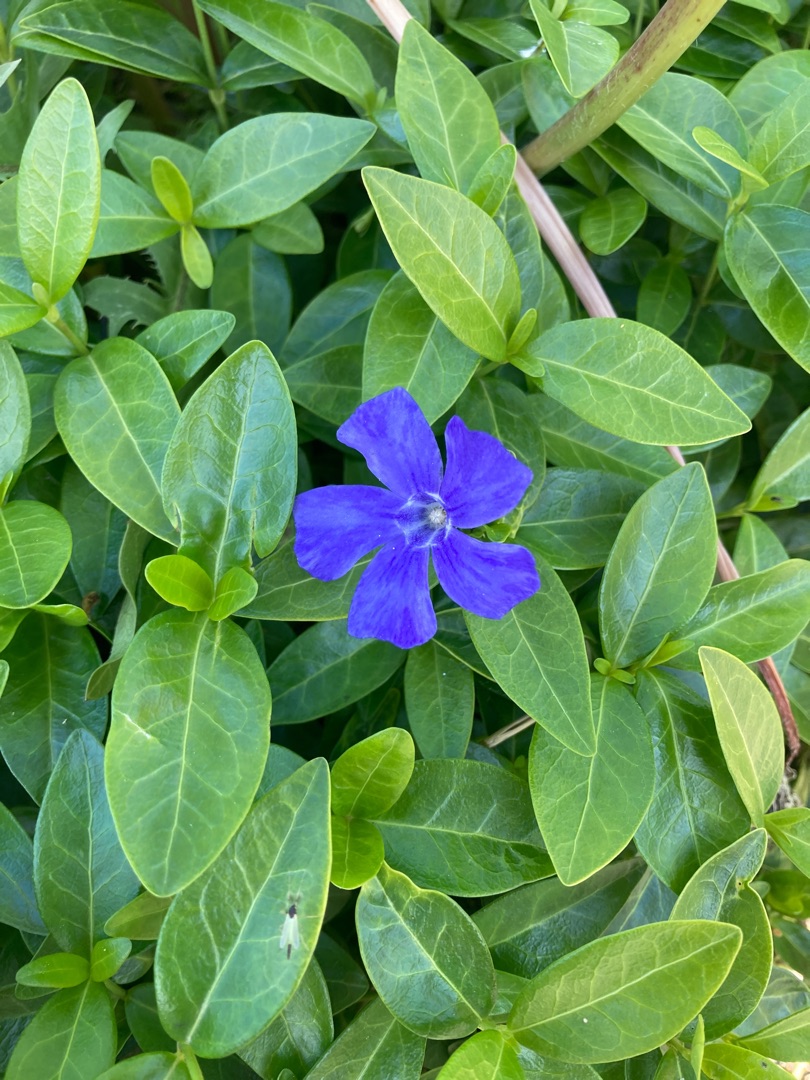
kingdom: Plantae
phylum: Tracheophyta
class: Magnoliopsida
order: Gentianales
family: Apocynaceae
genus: Vinca
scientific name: Vinca minor
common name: Liden singrøn
